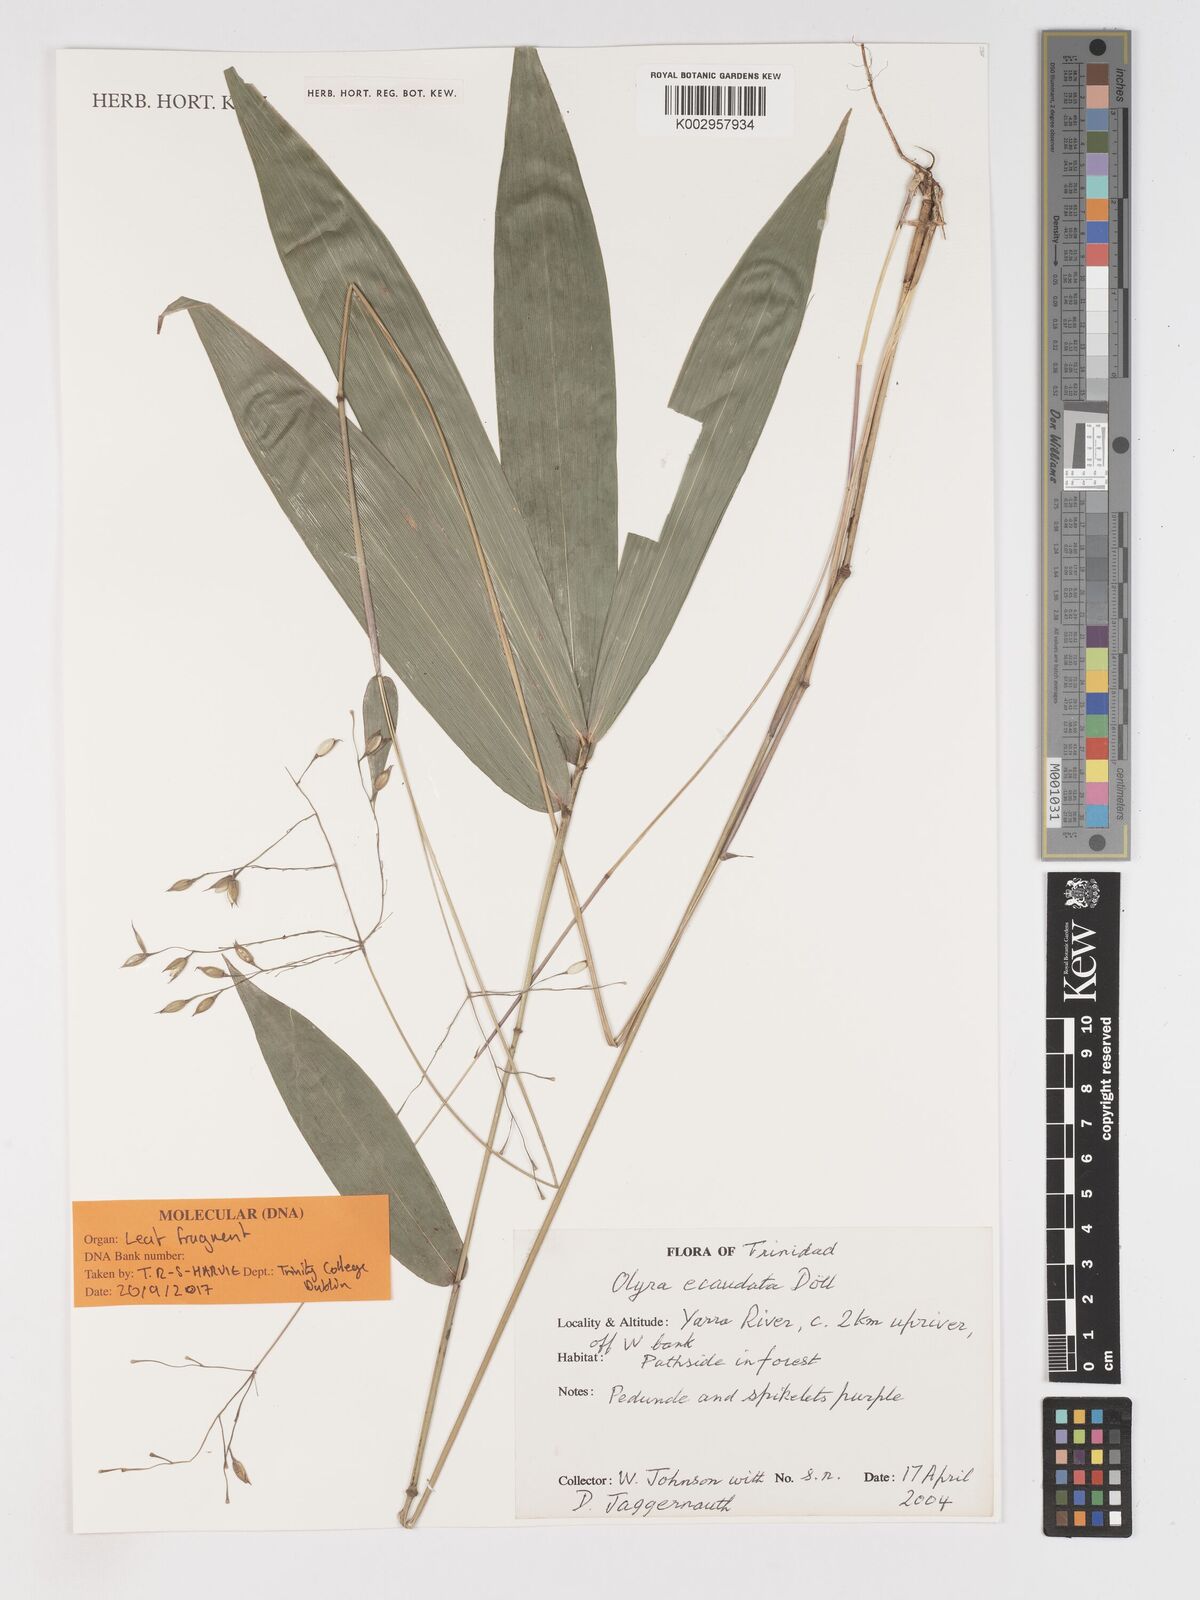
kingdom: Plantae
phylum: Tracheophyta
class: Liliopsida
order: Poales
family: Poaceae
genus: Olyra
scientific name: Olyra ecaudata
